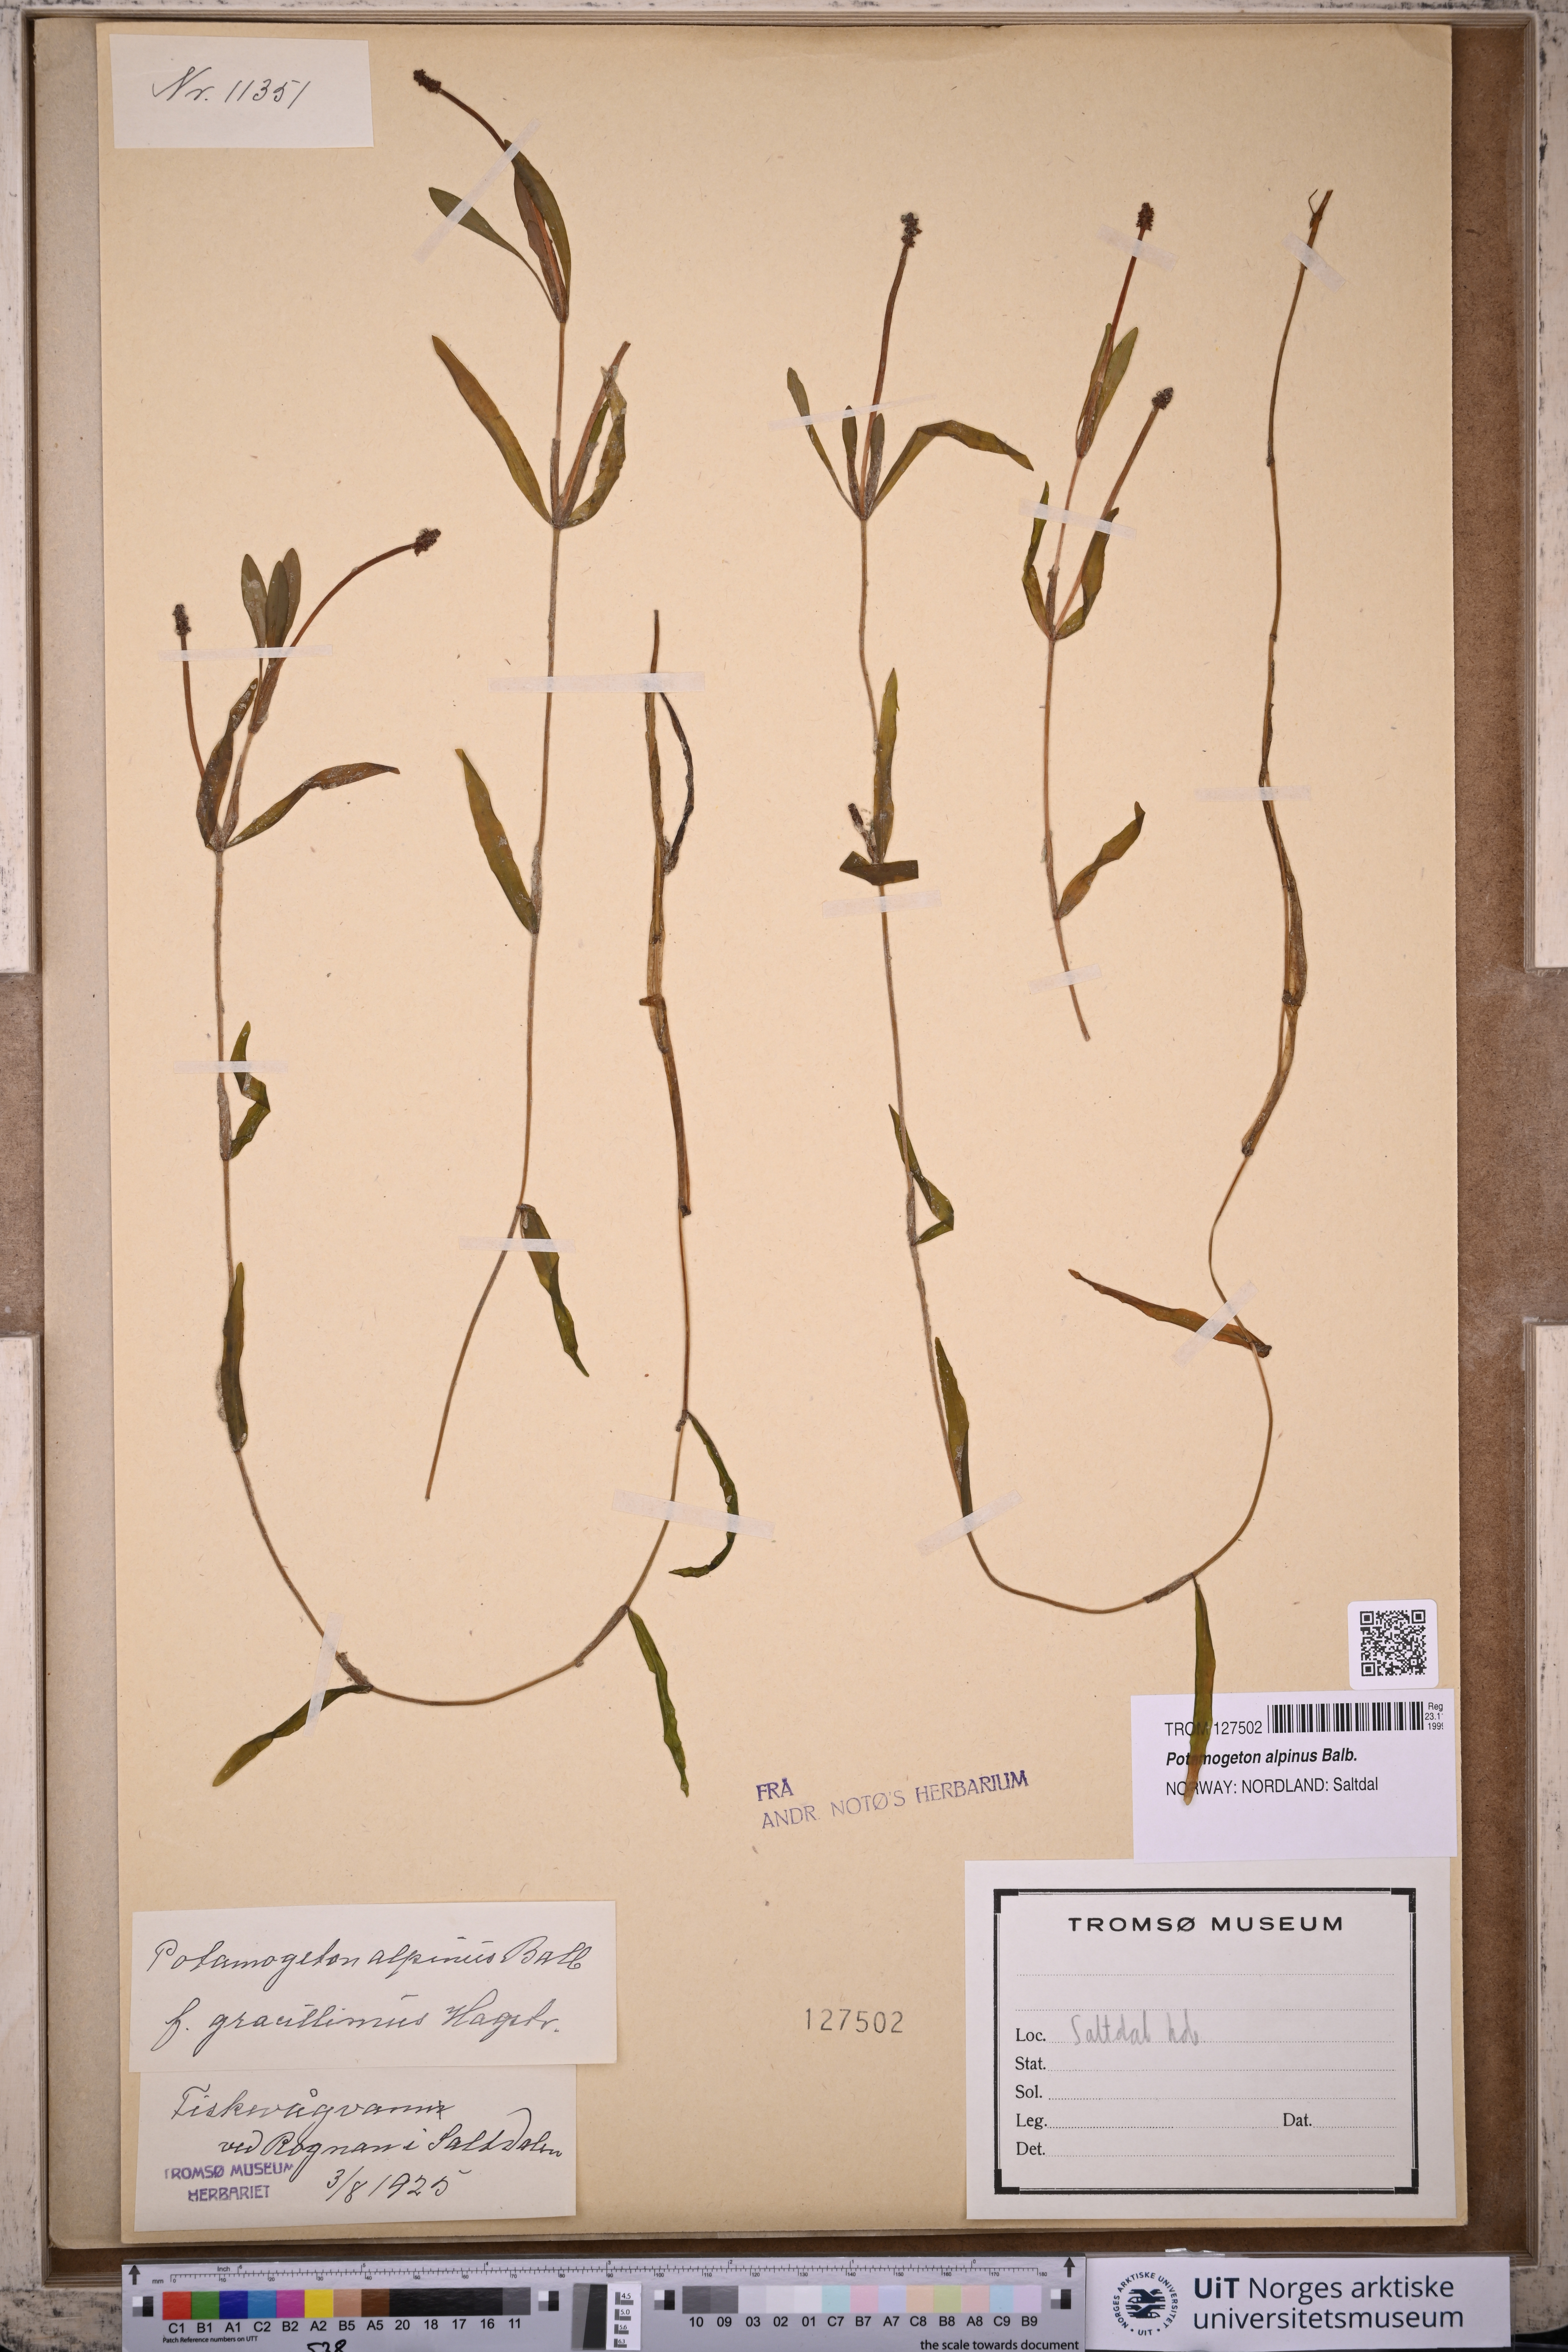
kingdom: Plantae
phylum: Tracheophyta
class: Liliopsida
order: Alismatales
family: Potamogetonaceae
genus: Potamogeton
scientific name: Potamogeton alpinus
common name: Red pondweed
